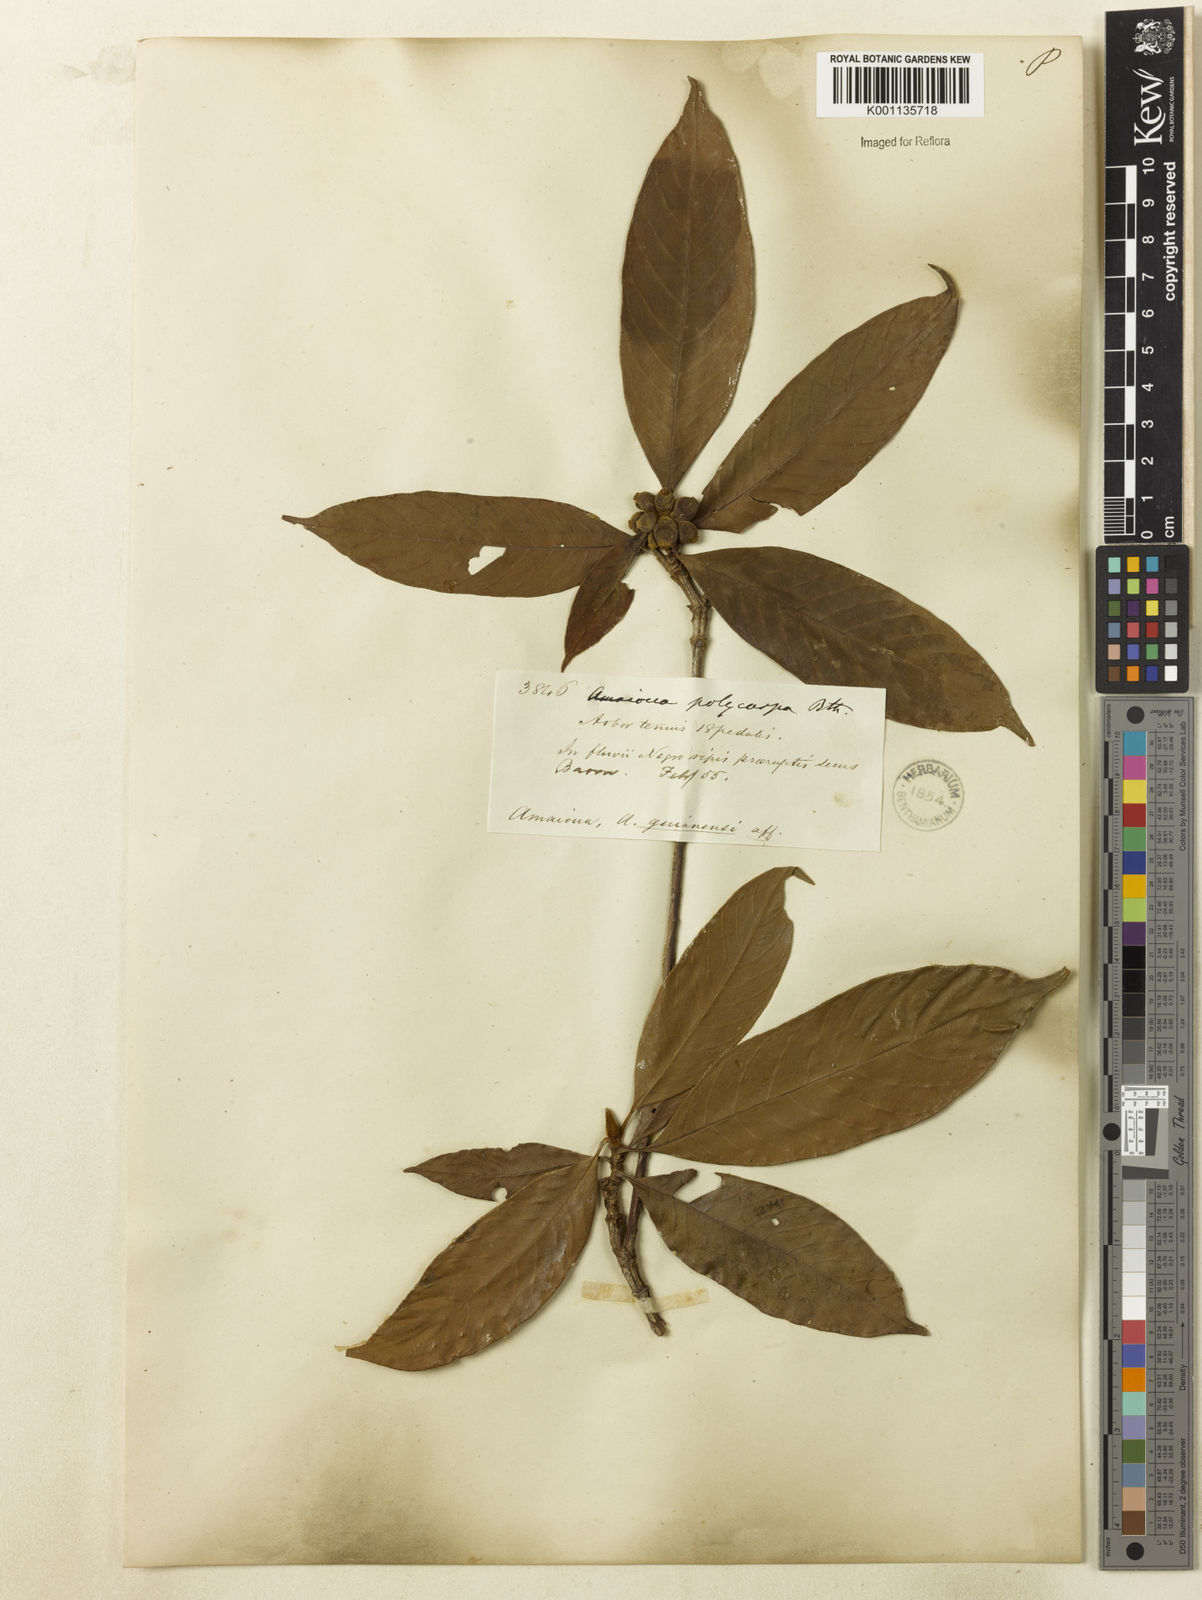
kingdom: Plantae
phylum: Tracheophyta
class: Magnoliopsida
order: Gentianales
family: Rubiaceae
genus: Amaioua
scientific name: Amaioua
